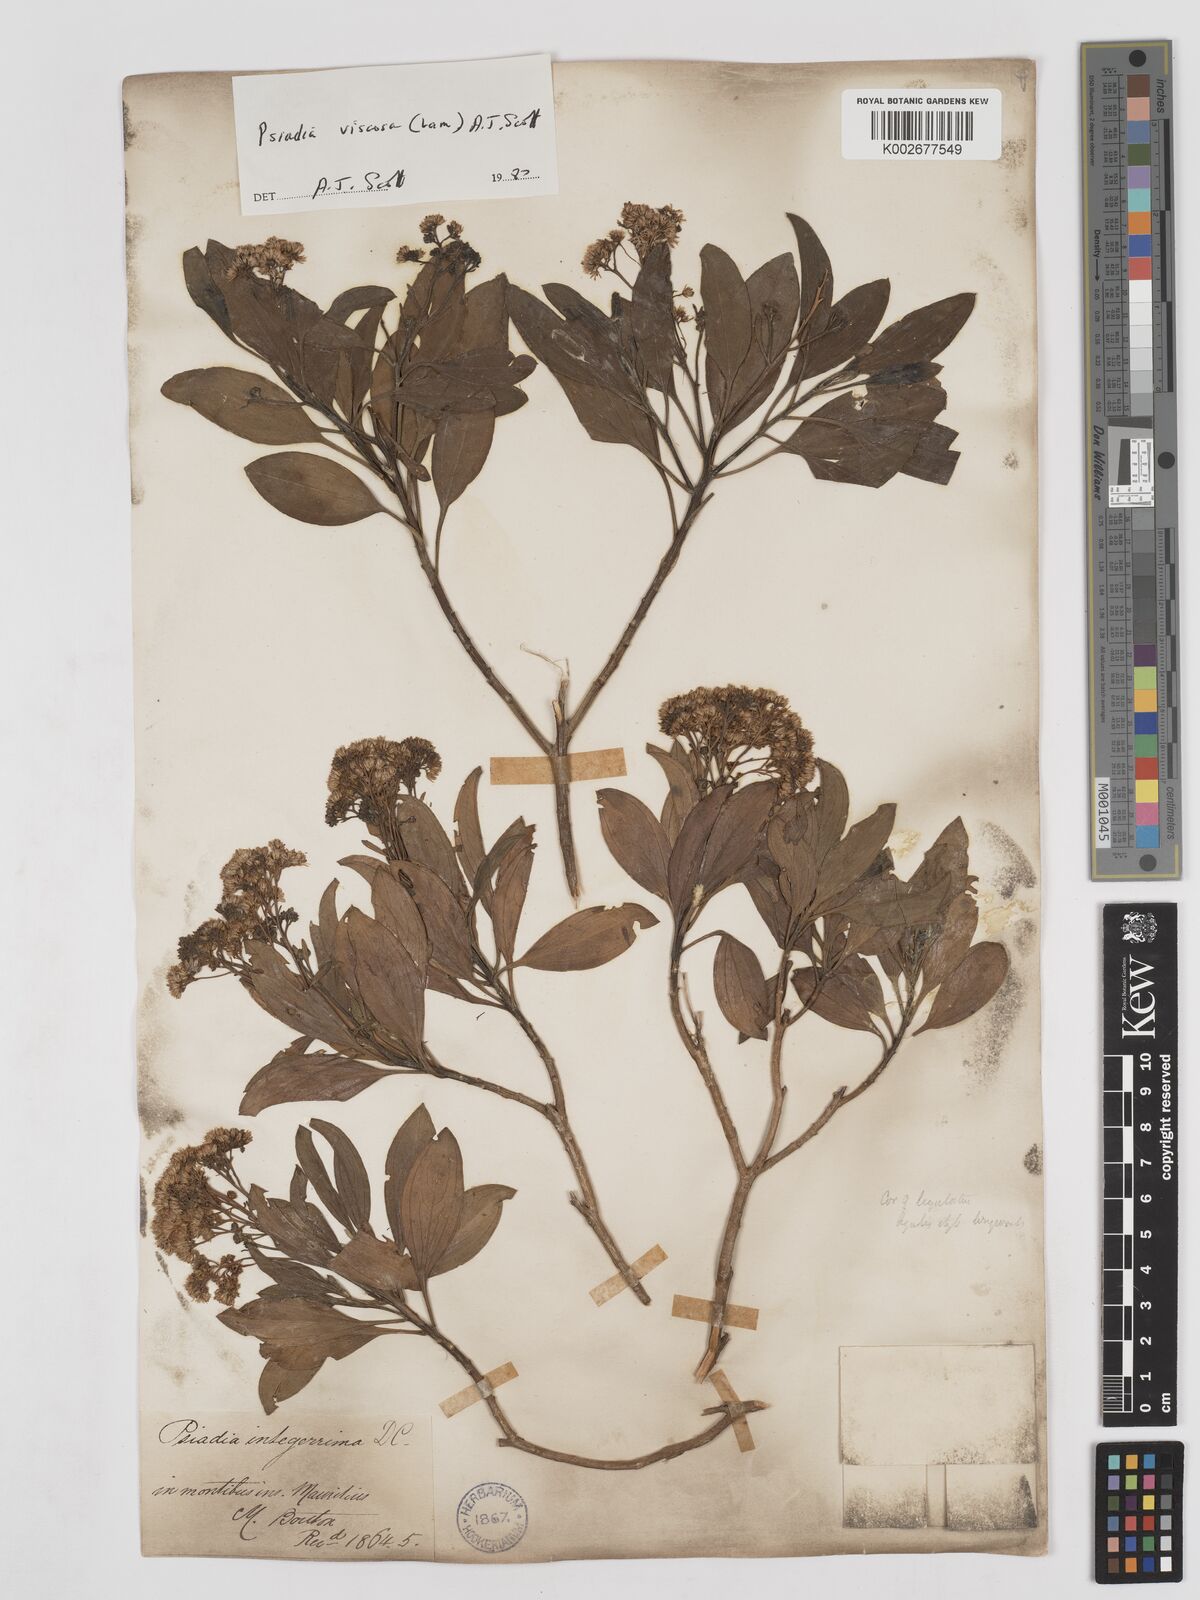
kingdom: Plantae
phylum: Tracheophyta
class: Magnoliopsida
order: Asterales
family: Asteraceae
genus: Psiadia
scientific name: Psiadia viscosa
